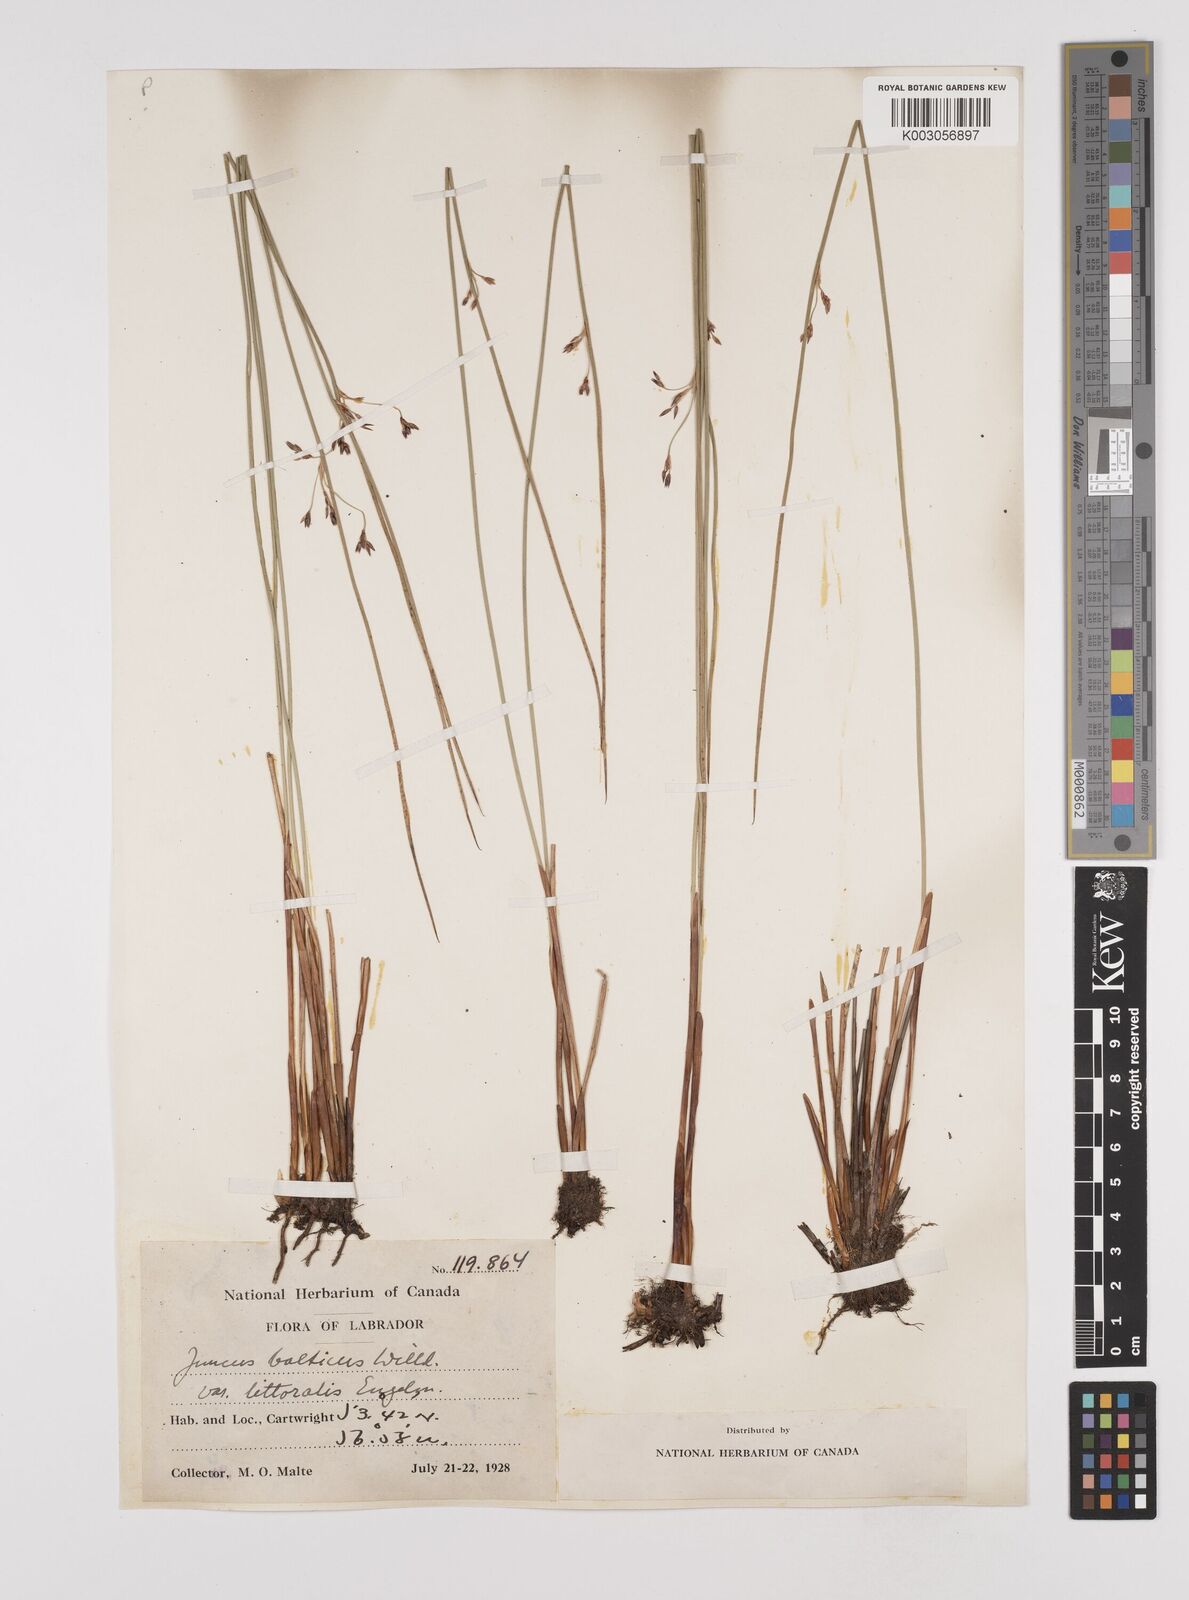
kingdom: Plantae
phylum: Tracheophyta
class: Liliopsida
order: Poales
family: Juncaceae
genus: Juncus
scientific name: Juncus balticus
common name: Baltic rush
